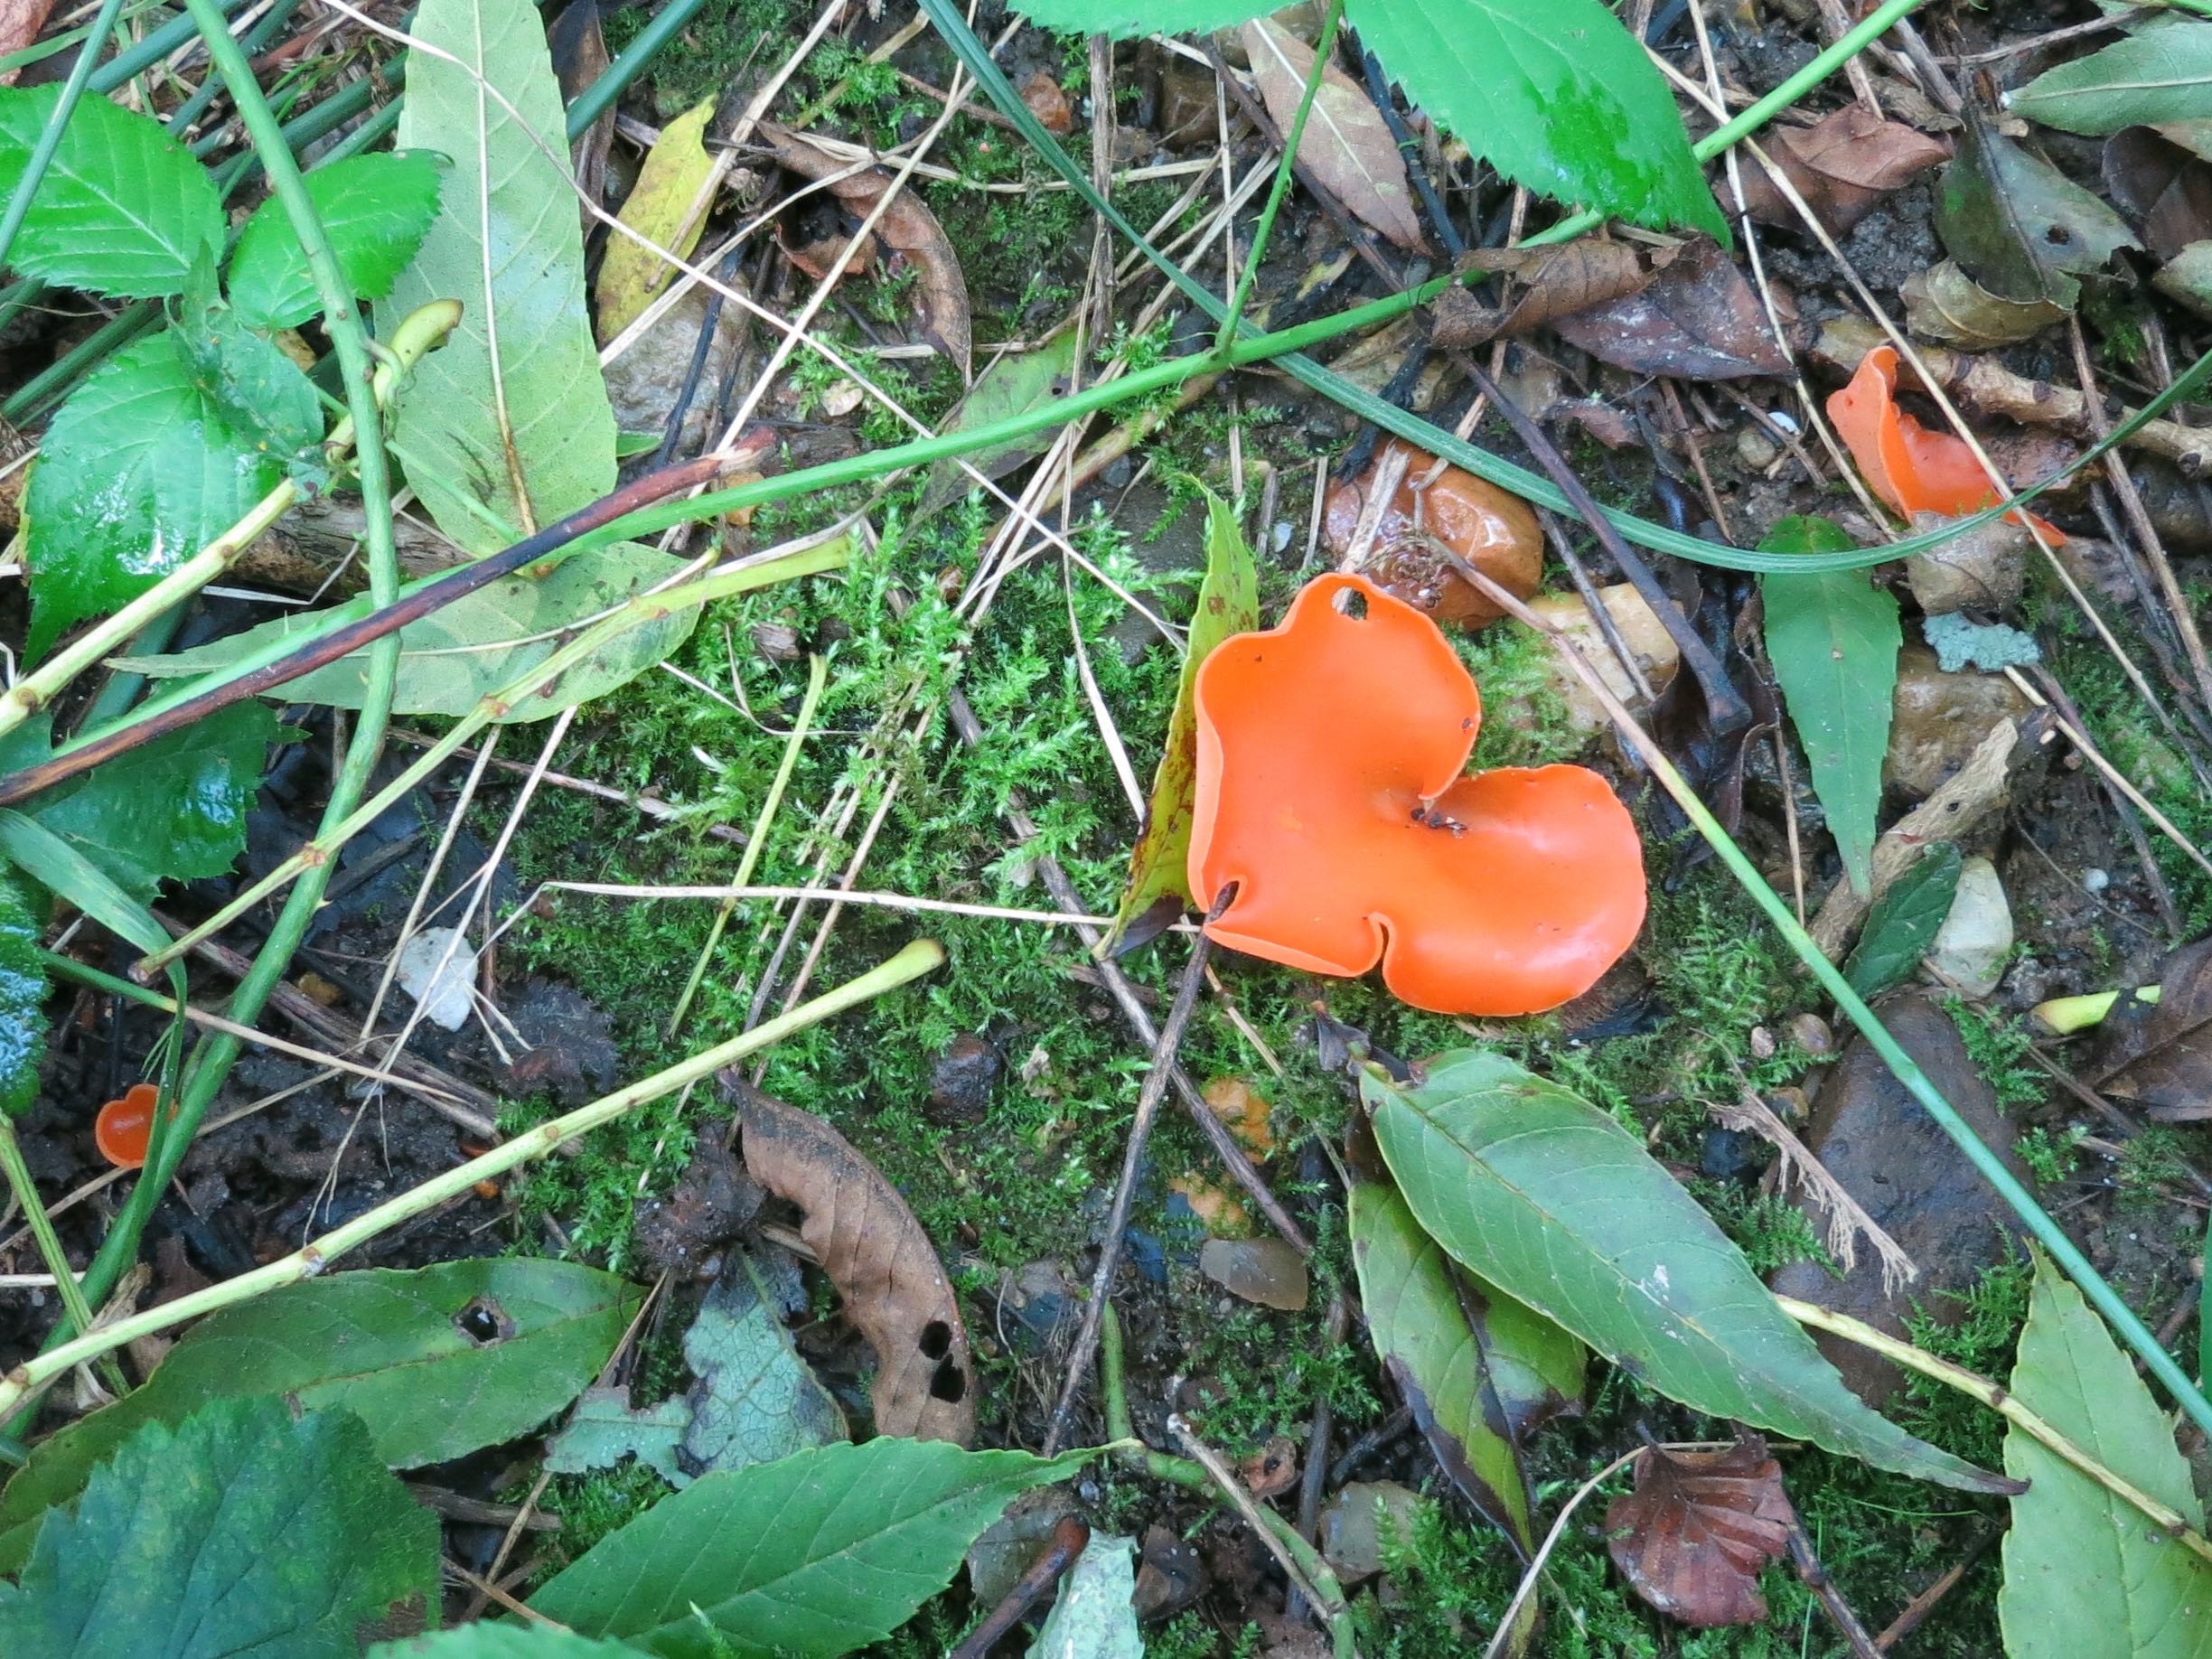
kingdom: Fungi
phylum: Ascomycota
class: Pezizomycetes
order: Pezizales
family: Pyronemataceae
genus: Aleuria
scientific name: Aleuria aurantia
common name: almindelig orangebæger
